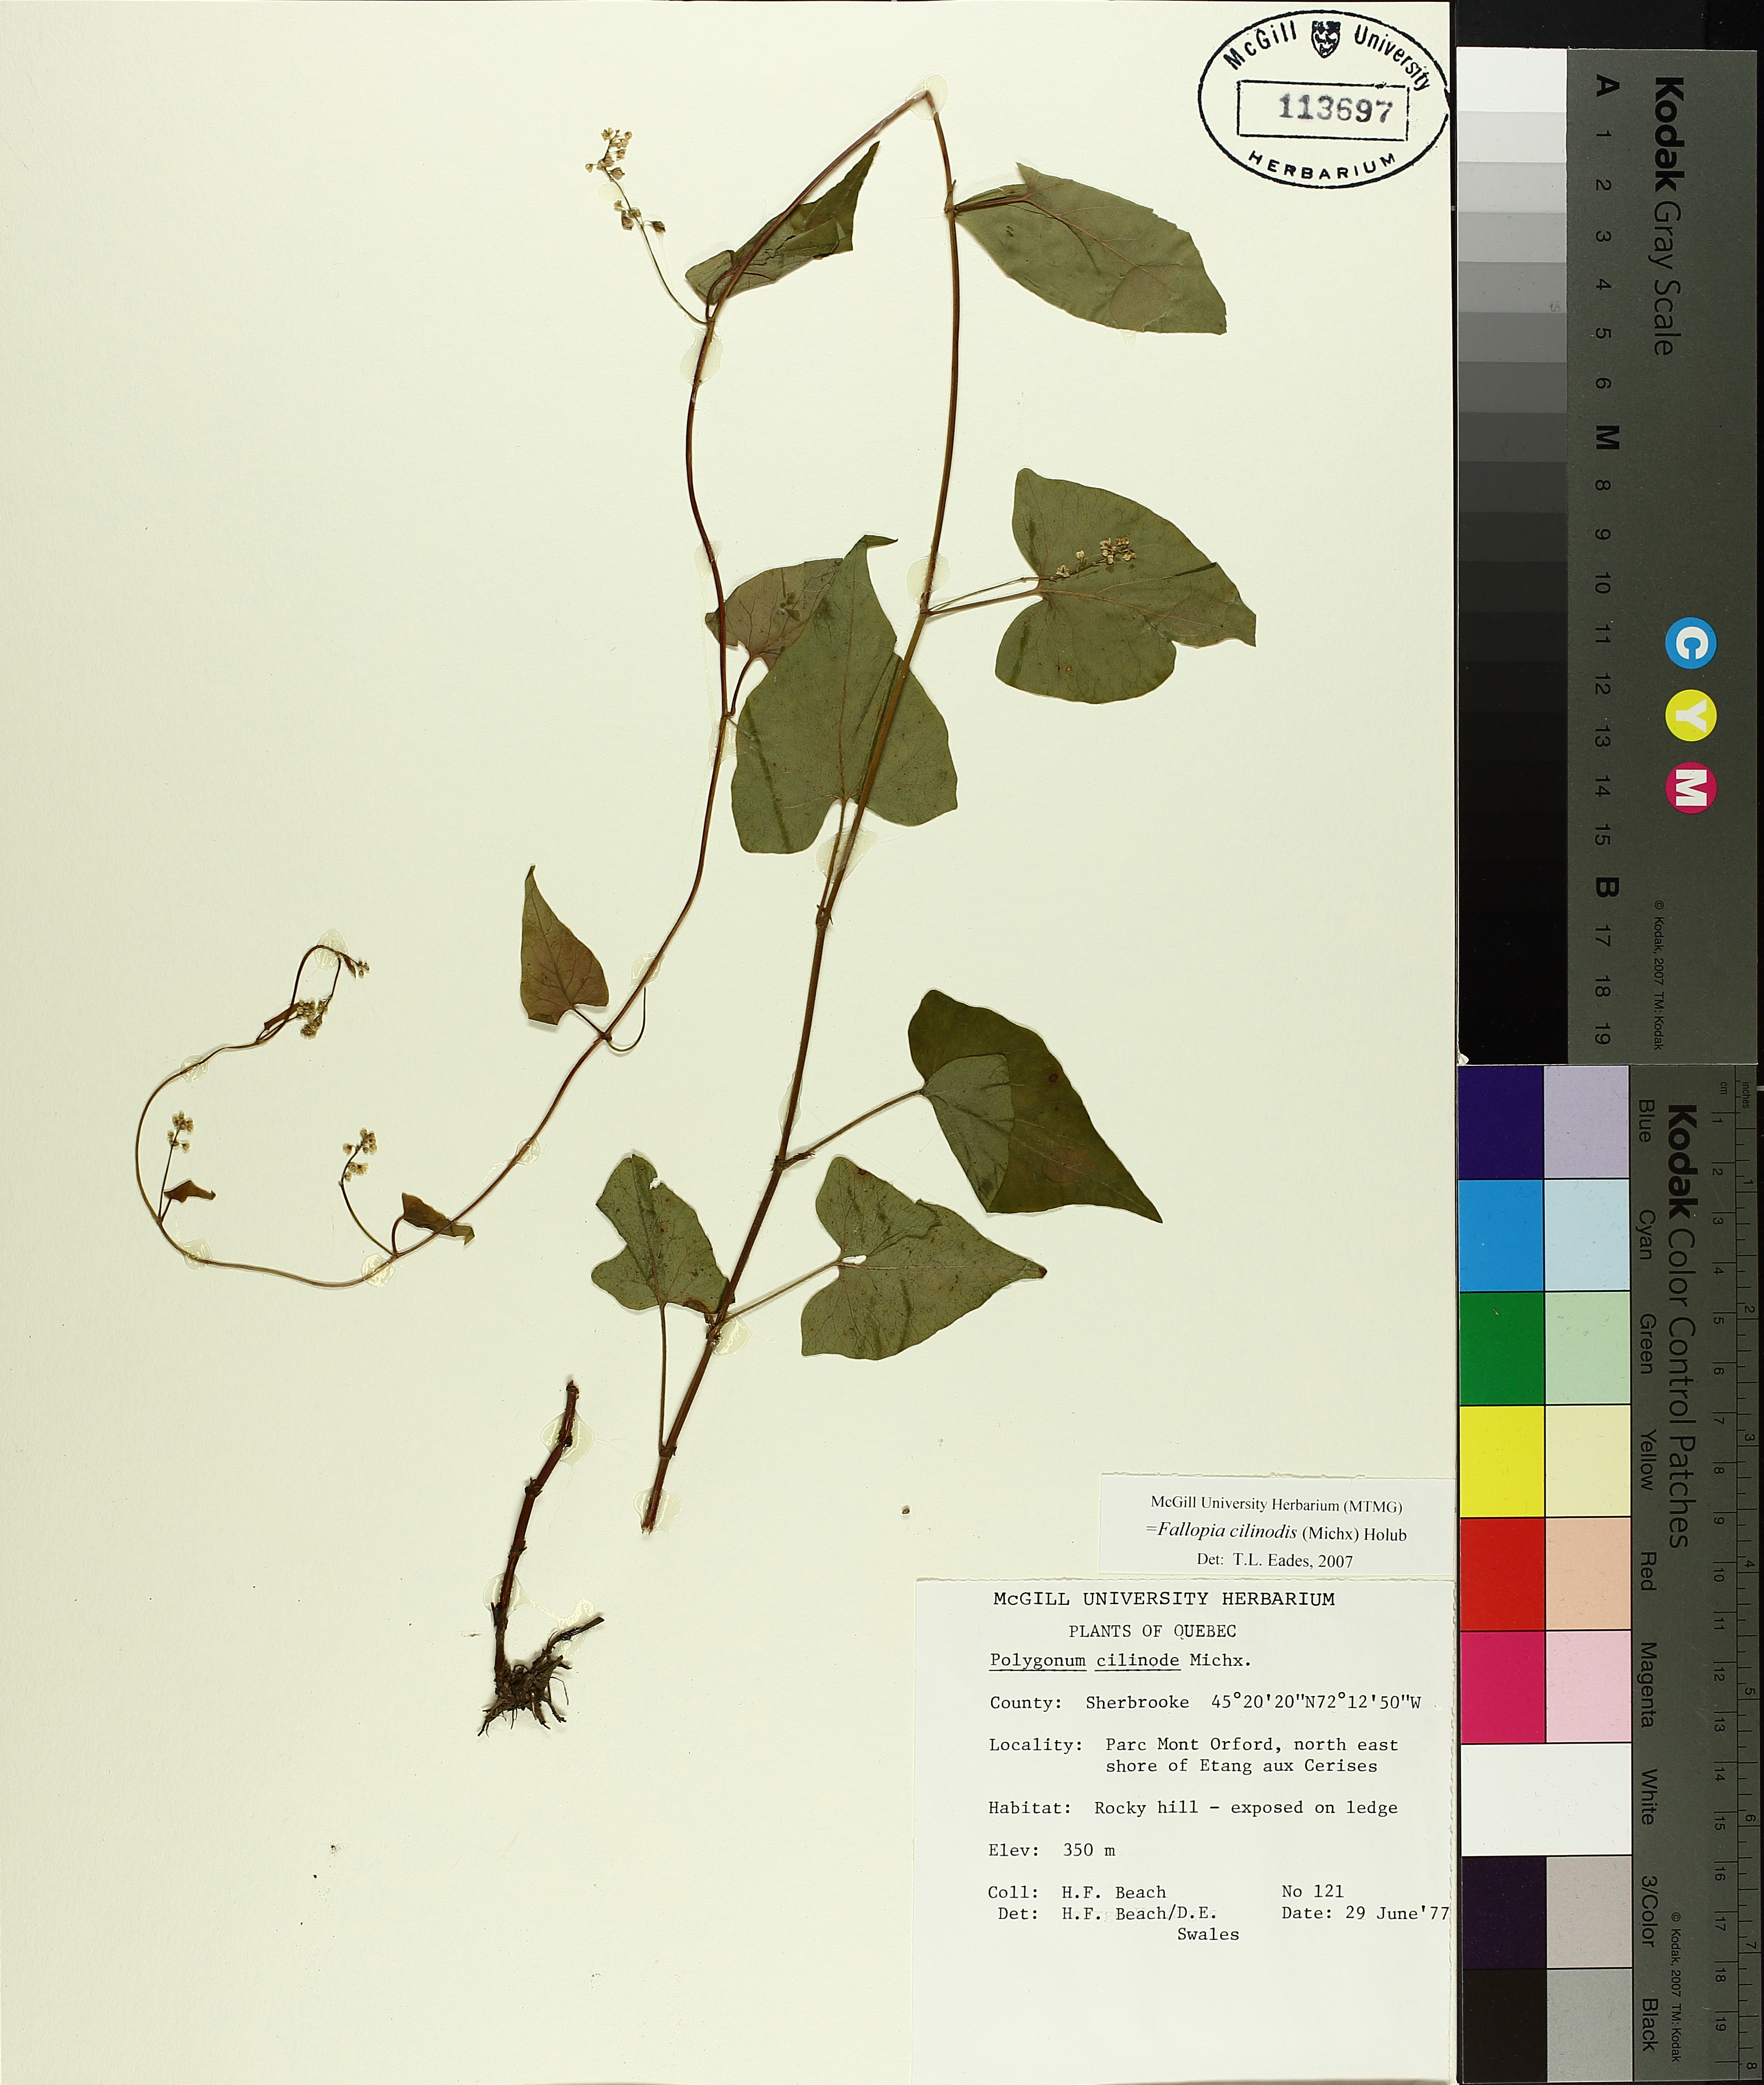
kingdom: Plantae
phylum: Tracheophyta
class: Magnoliopsida
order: Caryophyllales
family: Polygonaceae
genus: Parogonum
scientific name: Parogonum ciliinode
